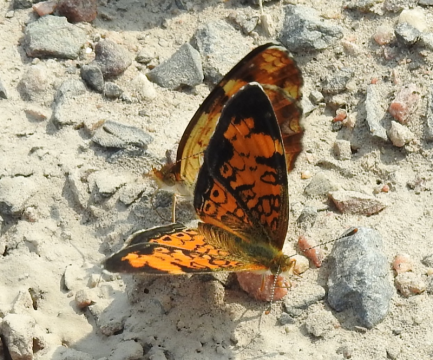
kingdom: Animalia
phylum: Arthropoda
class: Insecta
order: Lepidoptera
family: Nymphalidae
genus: Phyciodes
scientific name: Phyciodes tharos
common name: Northern Crescent
